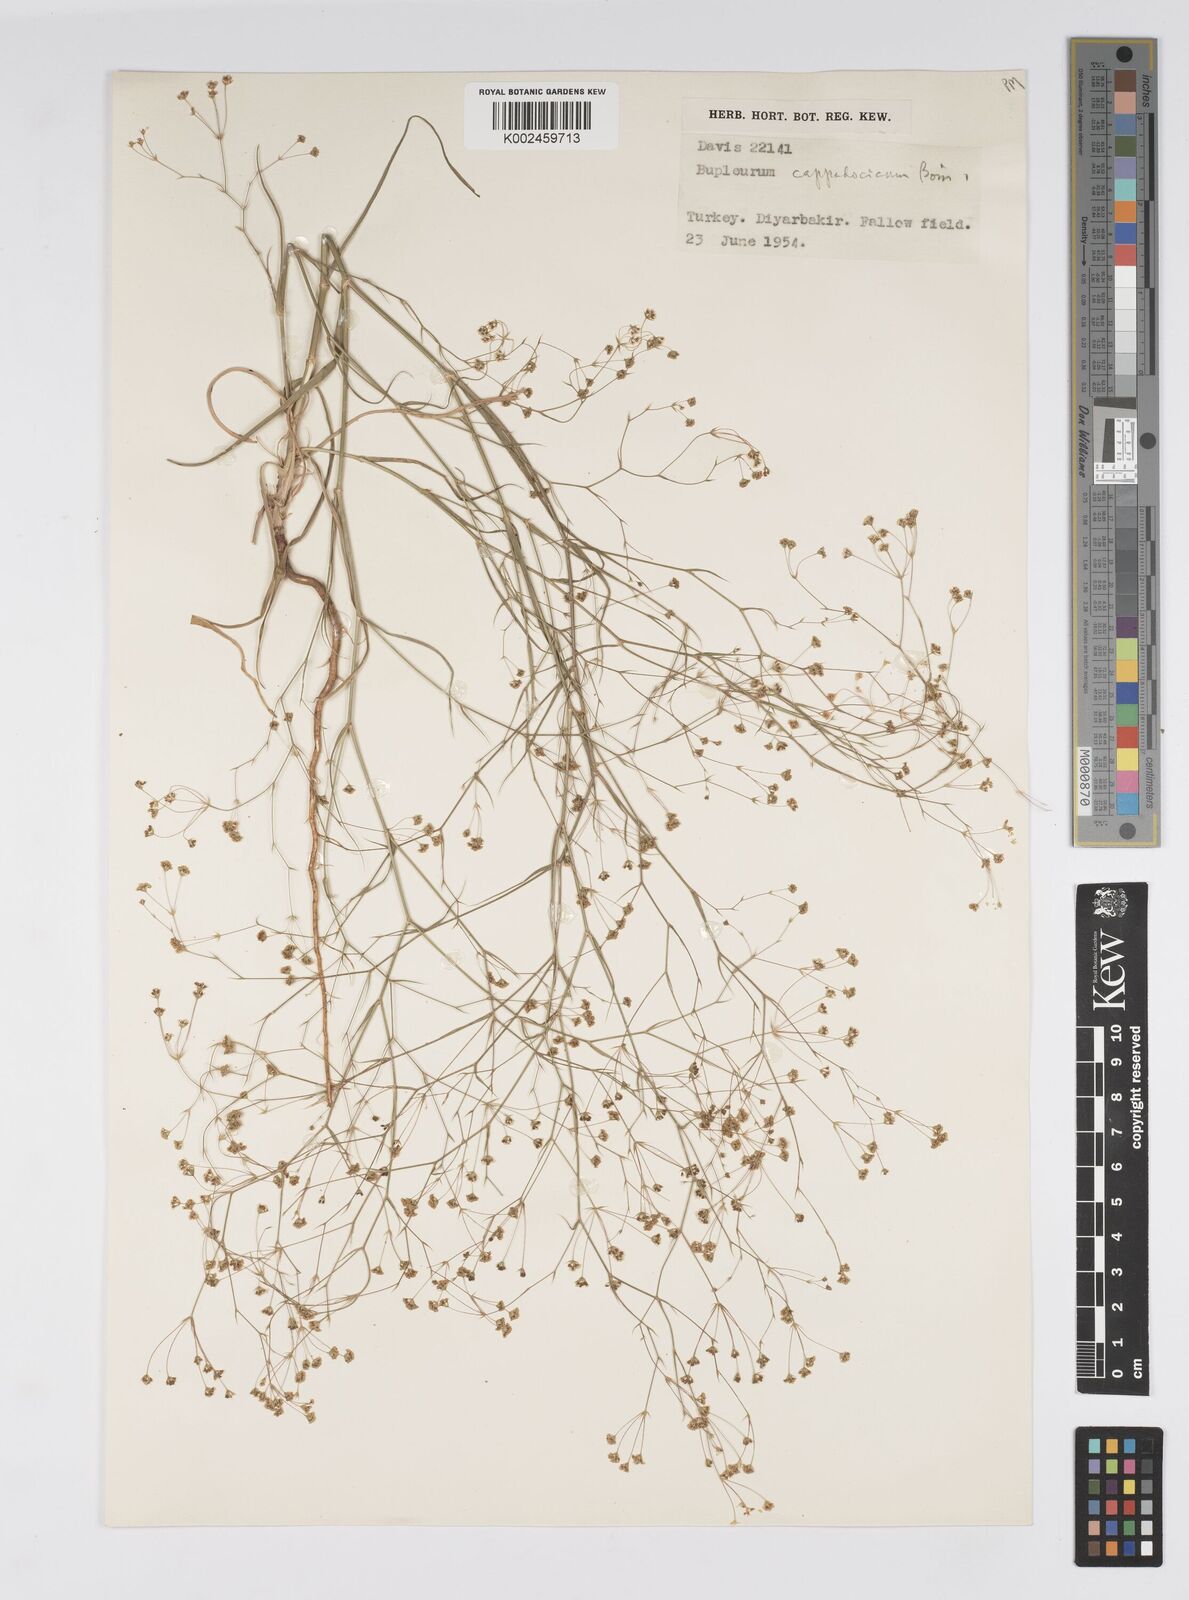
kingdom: Plantae
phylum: Tracheophyta
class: Magnoliopsida
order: Apiales
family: Apiaceae
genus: Bupleurum
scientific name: Bupleurum cappadocicum
